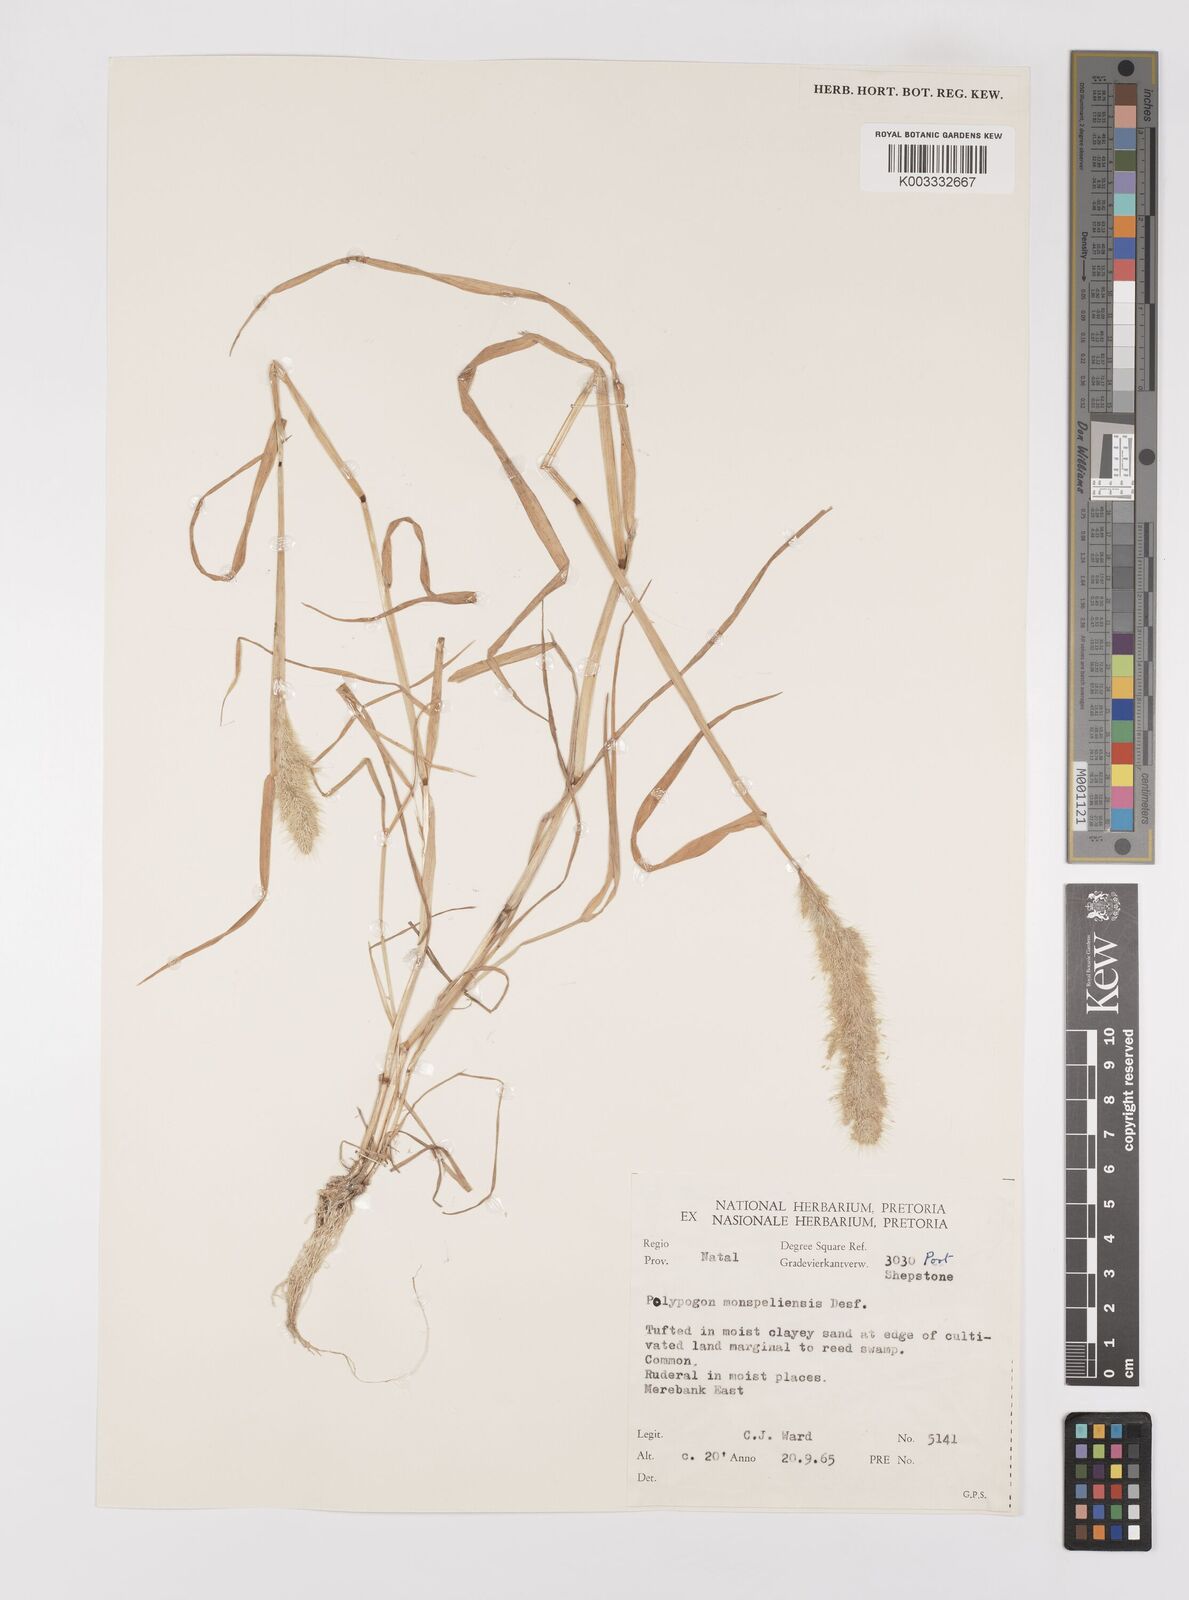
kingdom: Plantae
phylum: Tracheophyta
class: Liliopsida
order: Poales
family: Poaceae
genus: Polypogon
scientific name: Polypogon monspeliensis
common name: Annual rabbitsfoot grass
